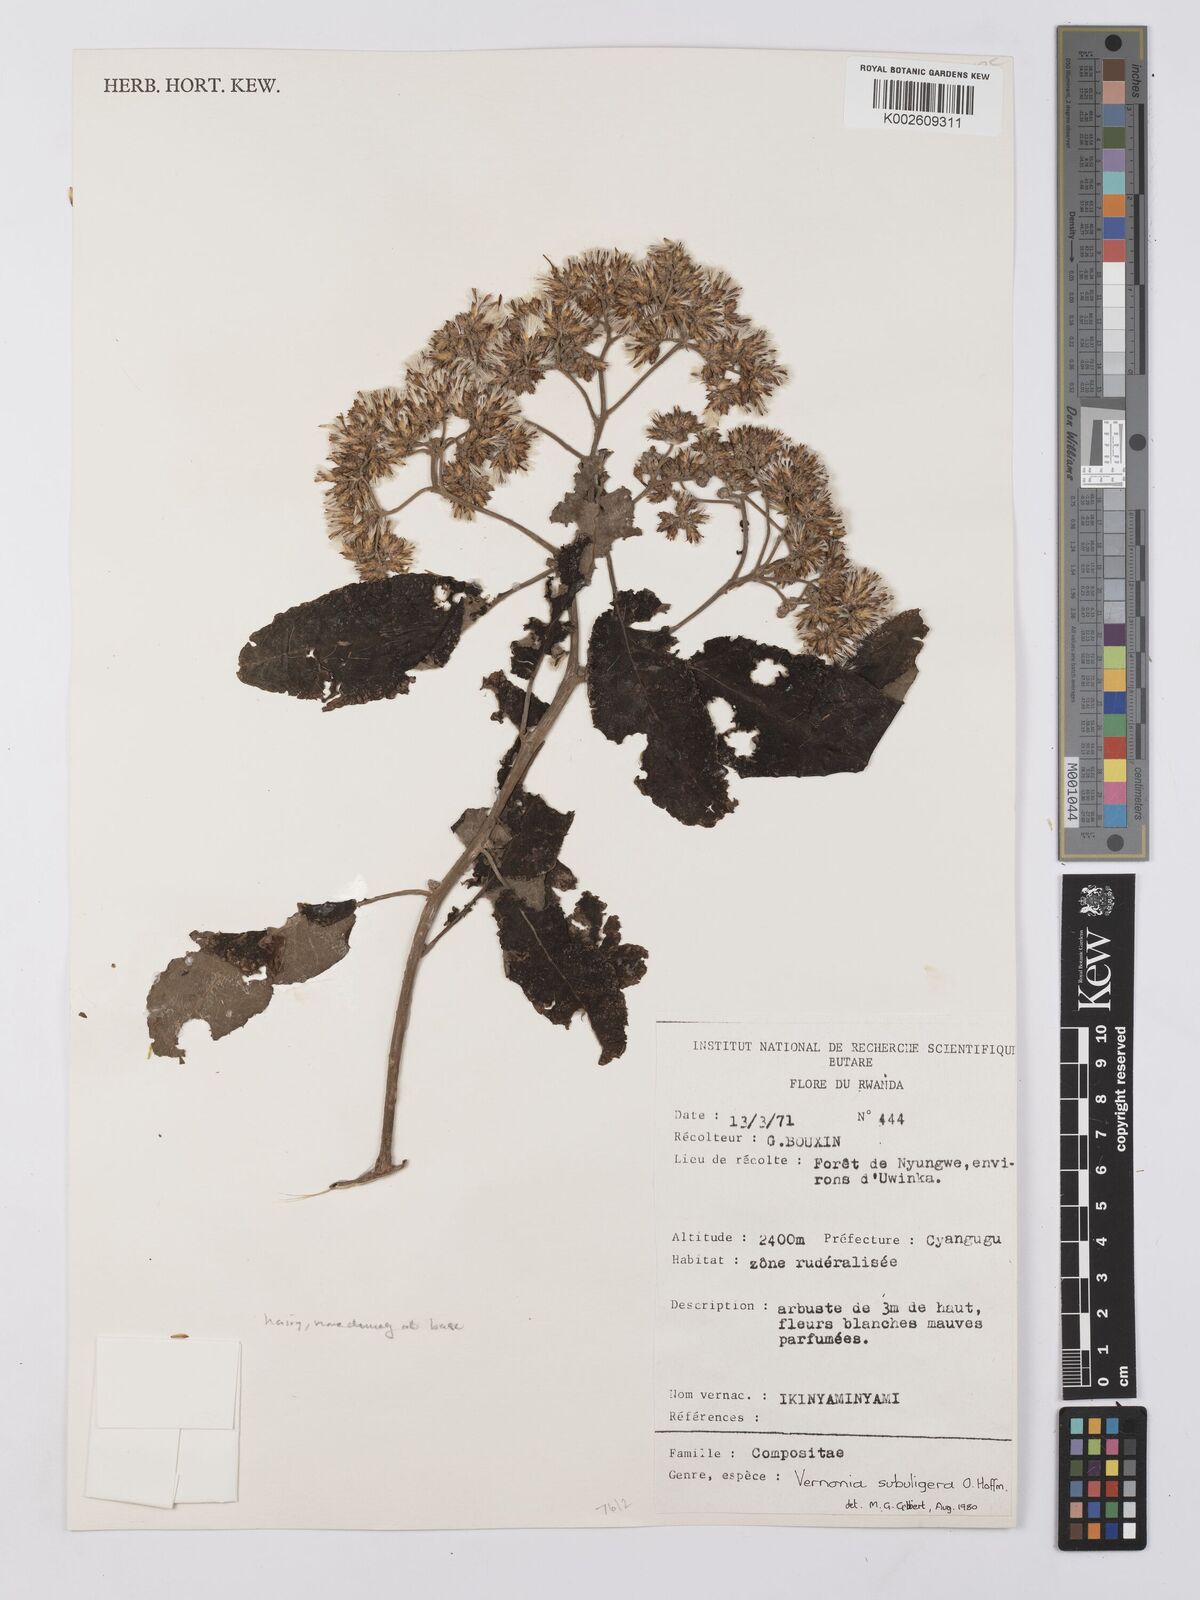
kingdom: Plantae
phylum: Tracheophyta
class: Magnoliopsida
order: Asterales
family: Asteraceae
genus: Gymnanthemum
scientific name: Gymnanthemum myrianthum
